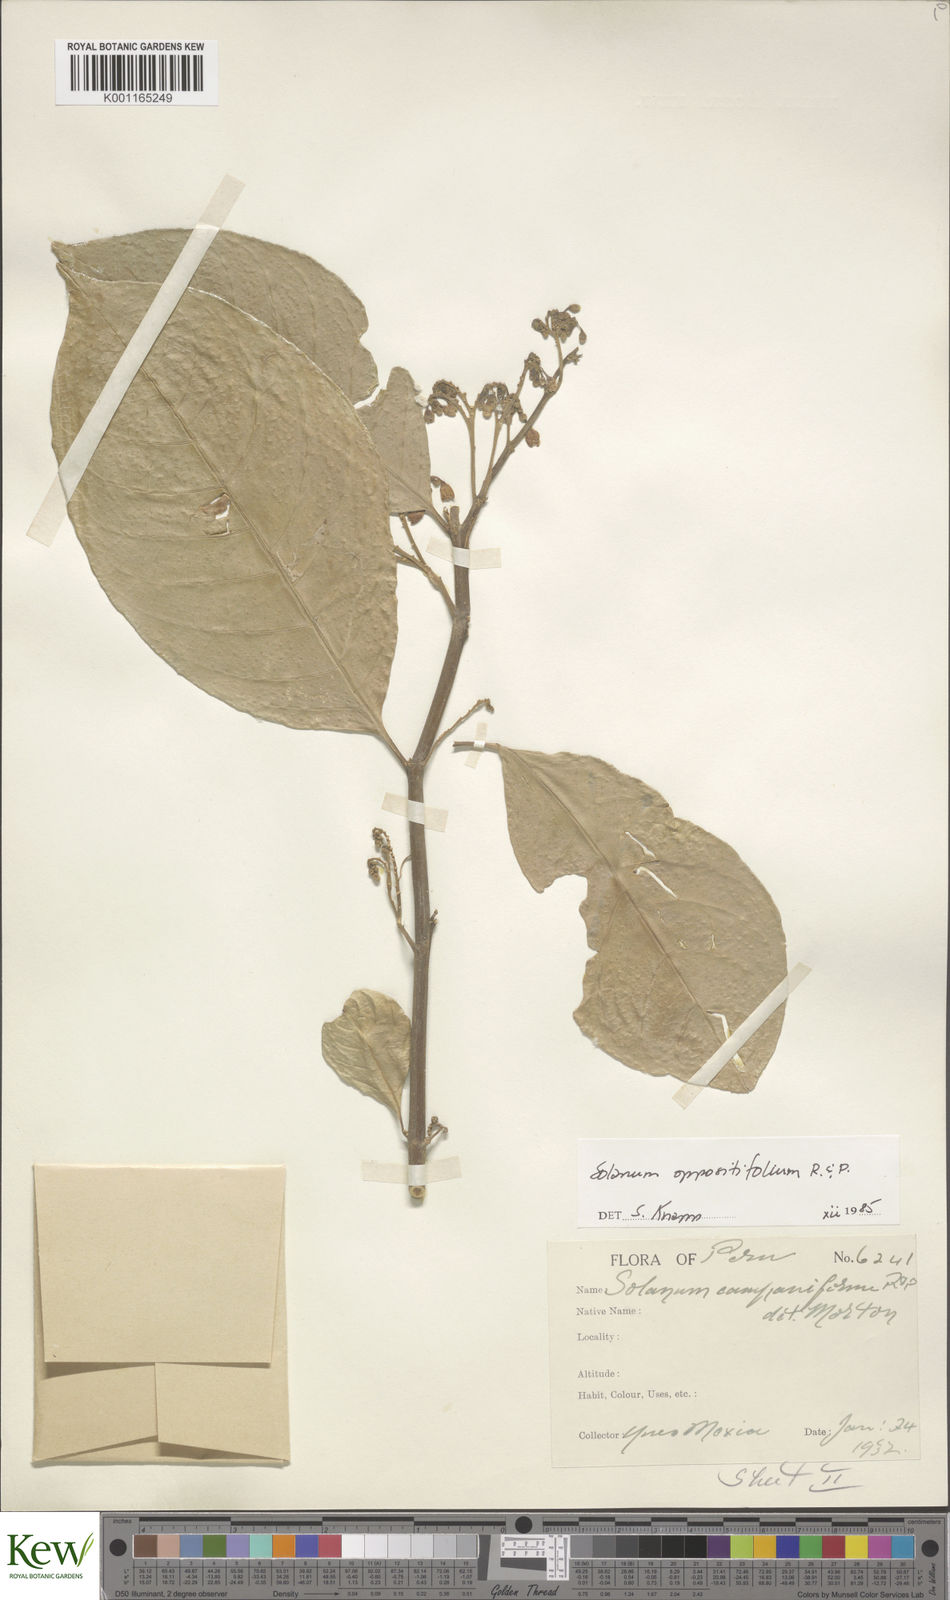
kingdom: Plantae
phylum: Tracheophyta
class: Magnoliopsida
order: Solanales
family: Solanaceae
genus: Solanum
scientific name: Solanum oppositifolium
